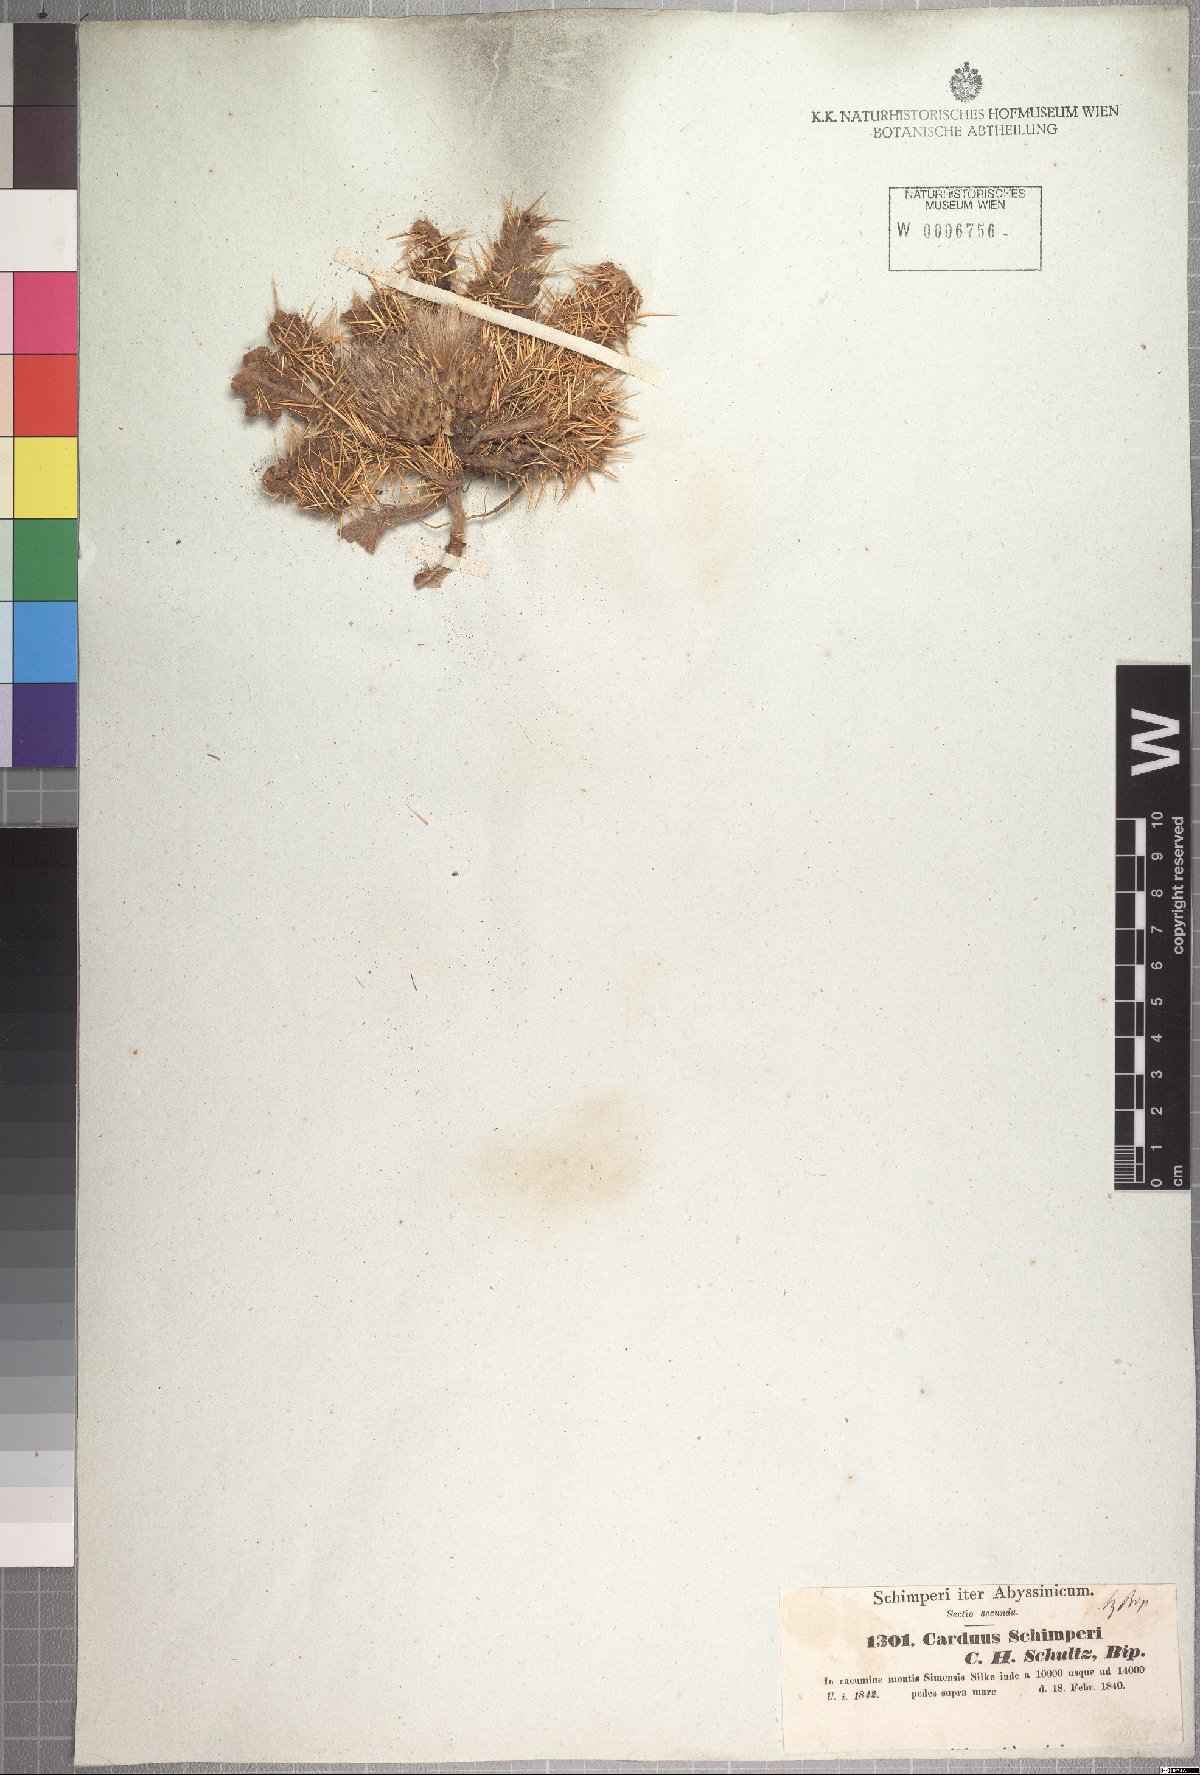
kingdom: Plantae
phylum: Tracheophyta
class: Magnoliopsida
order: Asterales
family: Asteraceae
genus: Carduus
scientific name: Carduus schimperi
